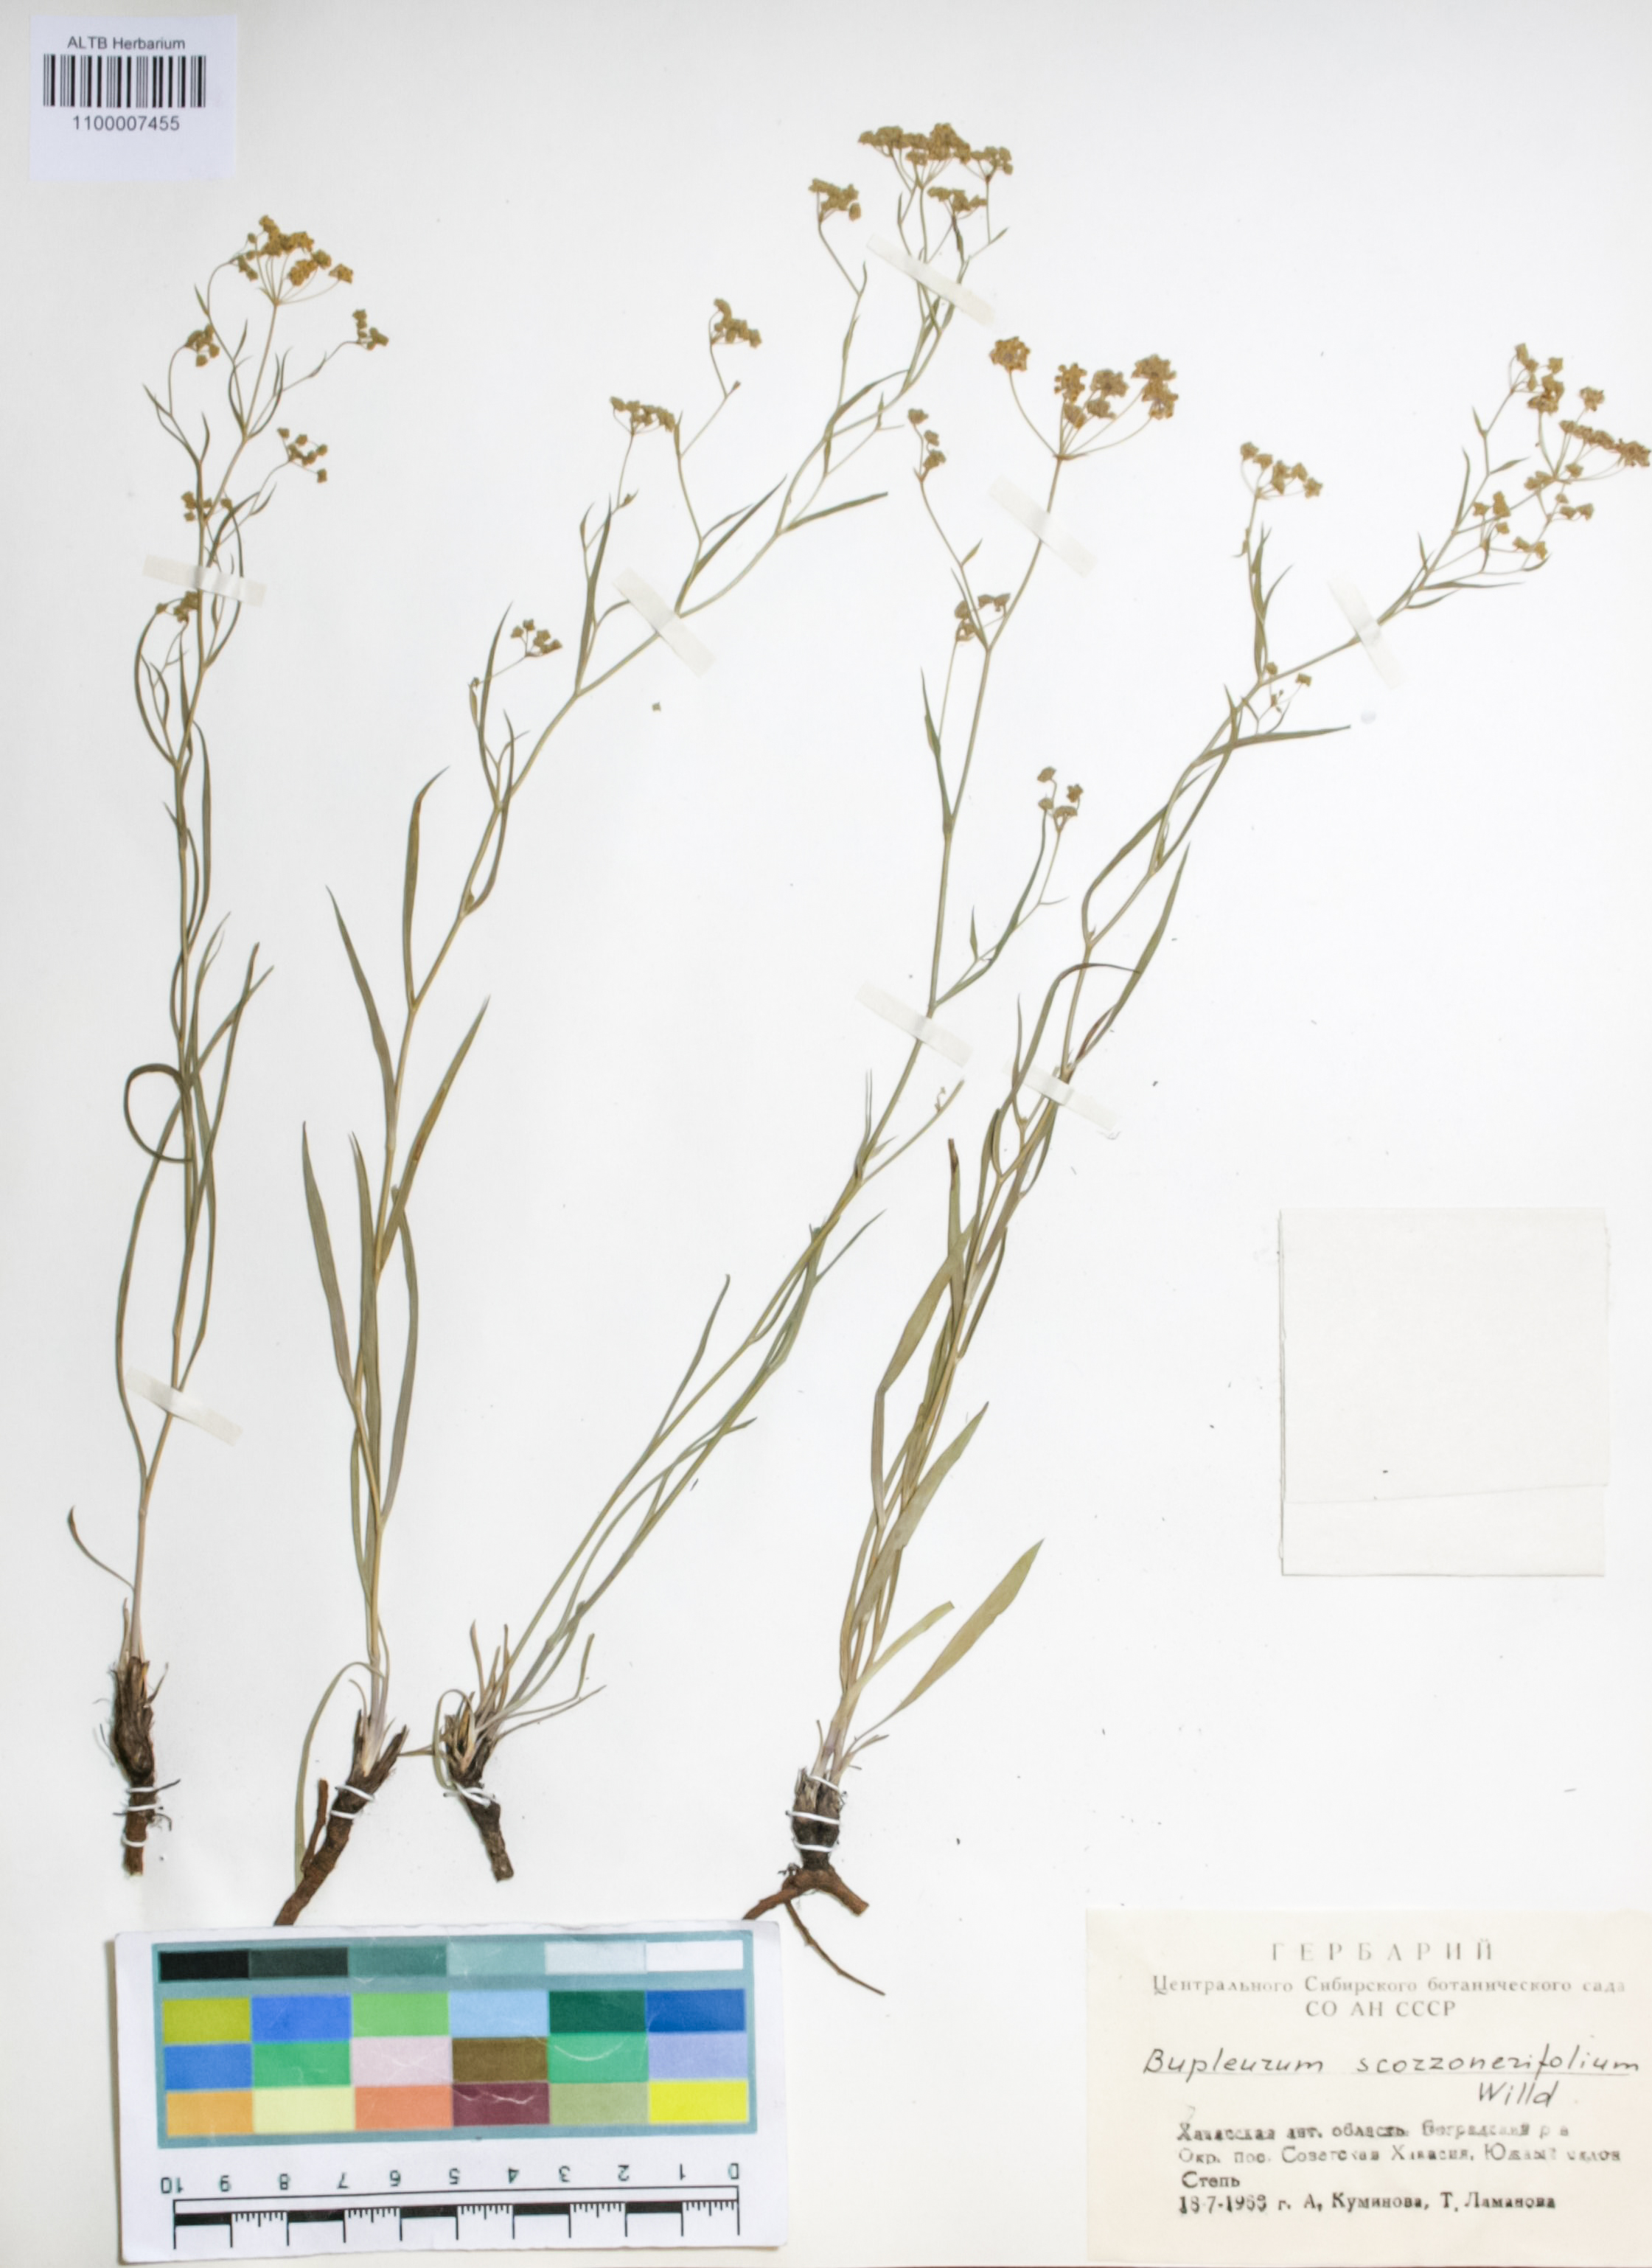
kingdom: Plantae
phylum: Tracheophyta
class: Magnoliopsida
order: Apiales
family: Apiaceae
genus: Bupleurum
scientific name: Bupleurum scorzonerifolium
